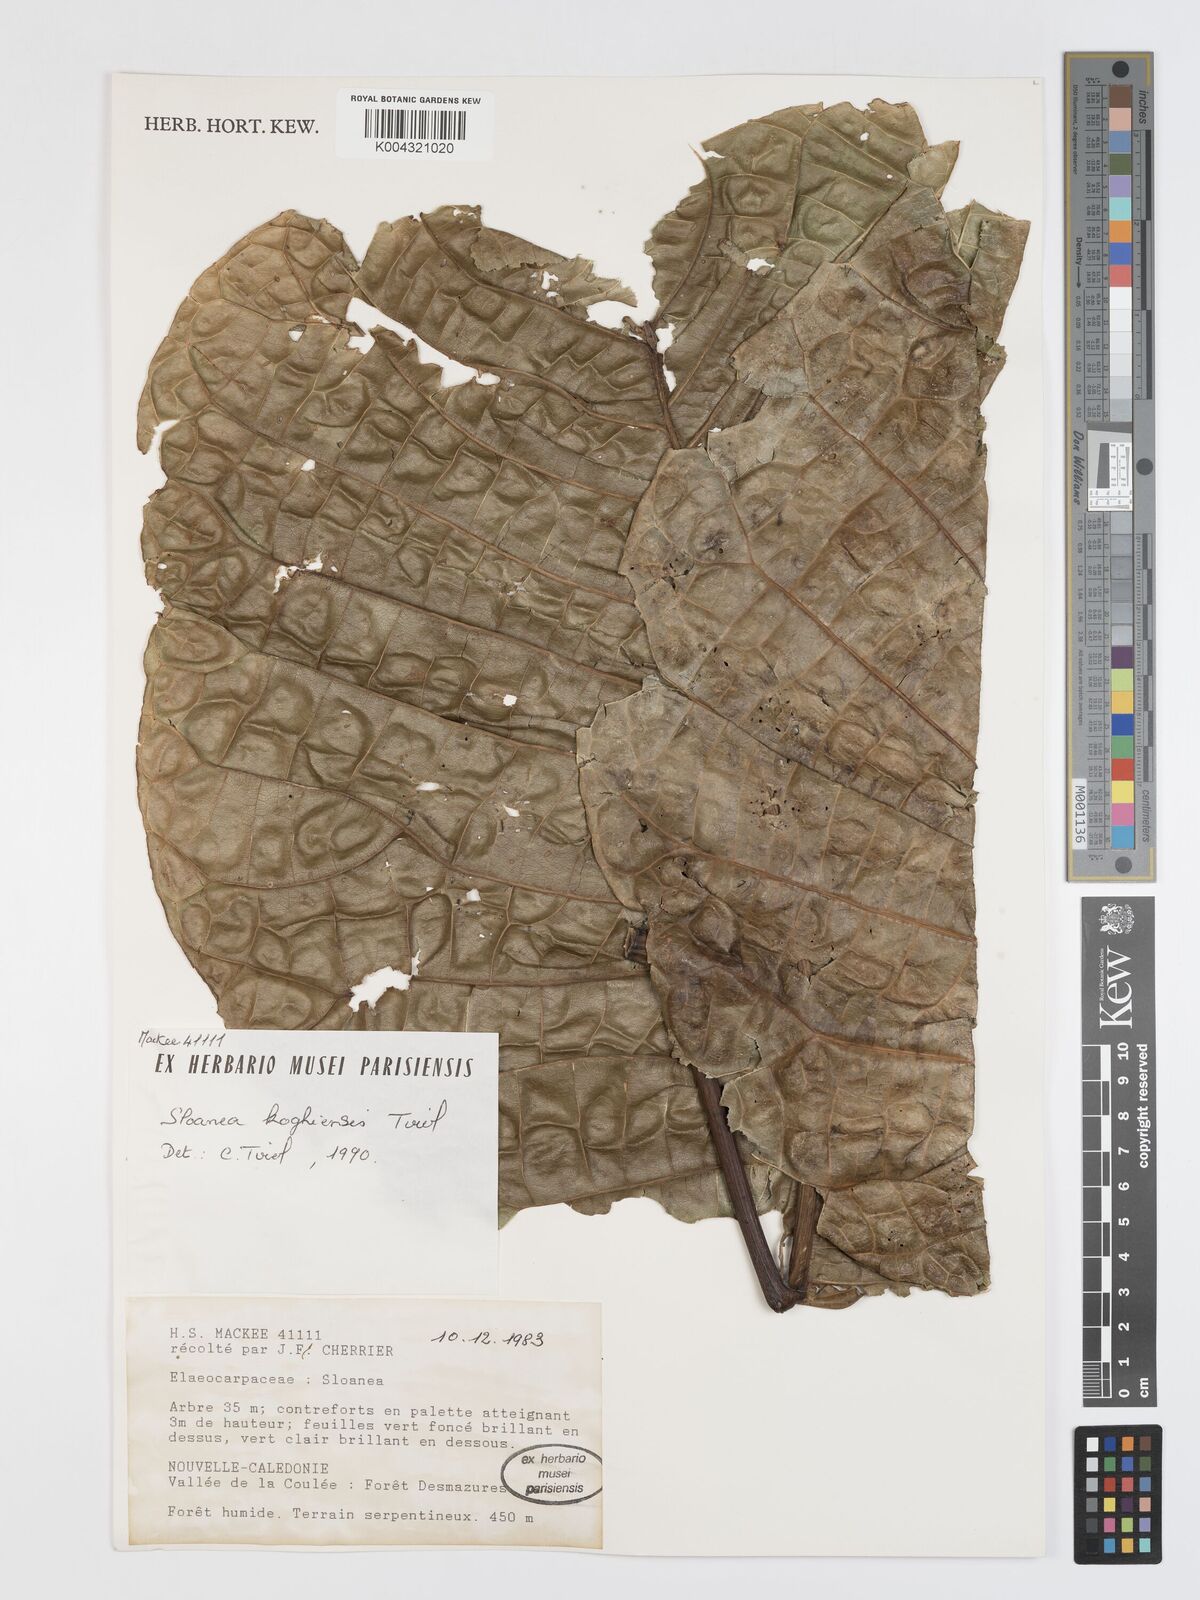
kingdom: Plantae
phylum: Tracheophyta
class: Magnoliopsida
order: Oxalidales
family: Elaeocarpaceae
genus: Sloanea
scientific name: Sloanea koghiensis
